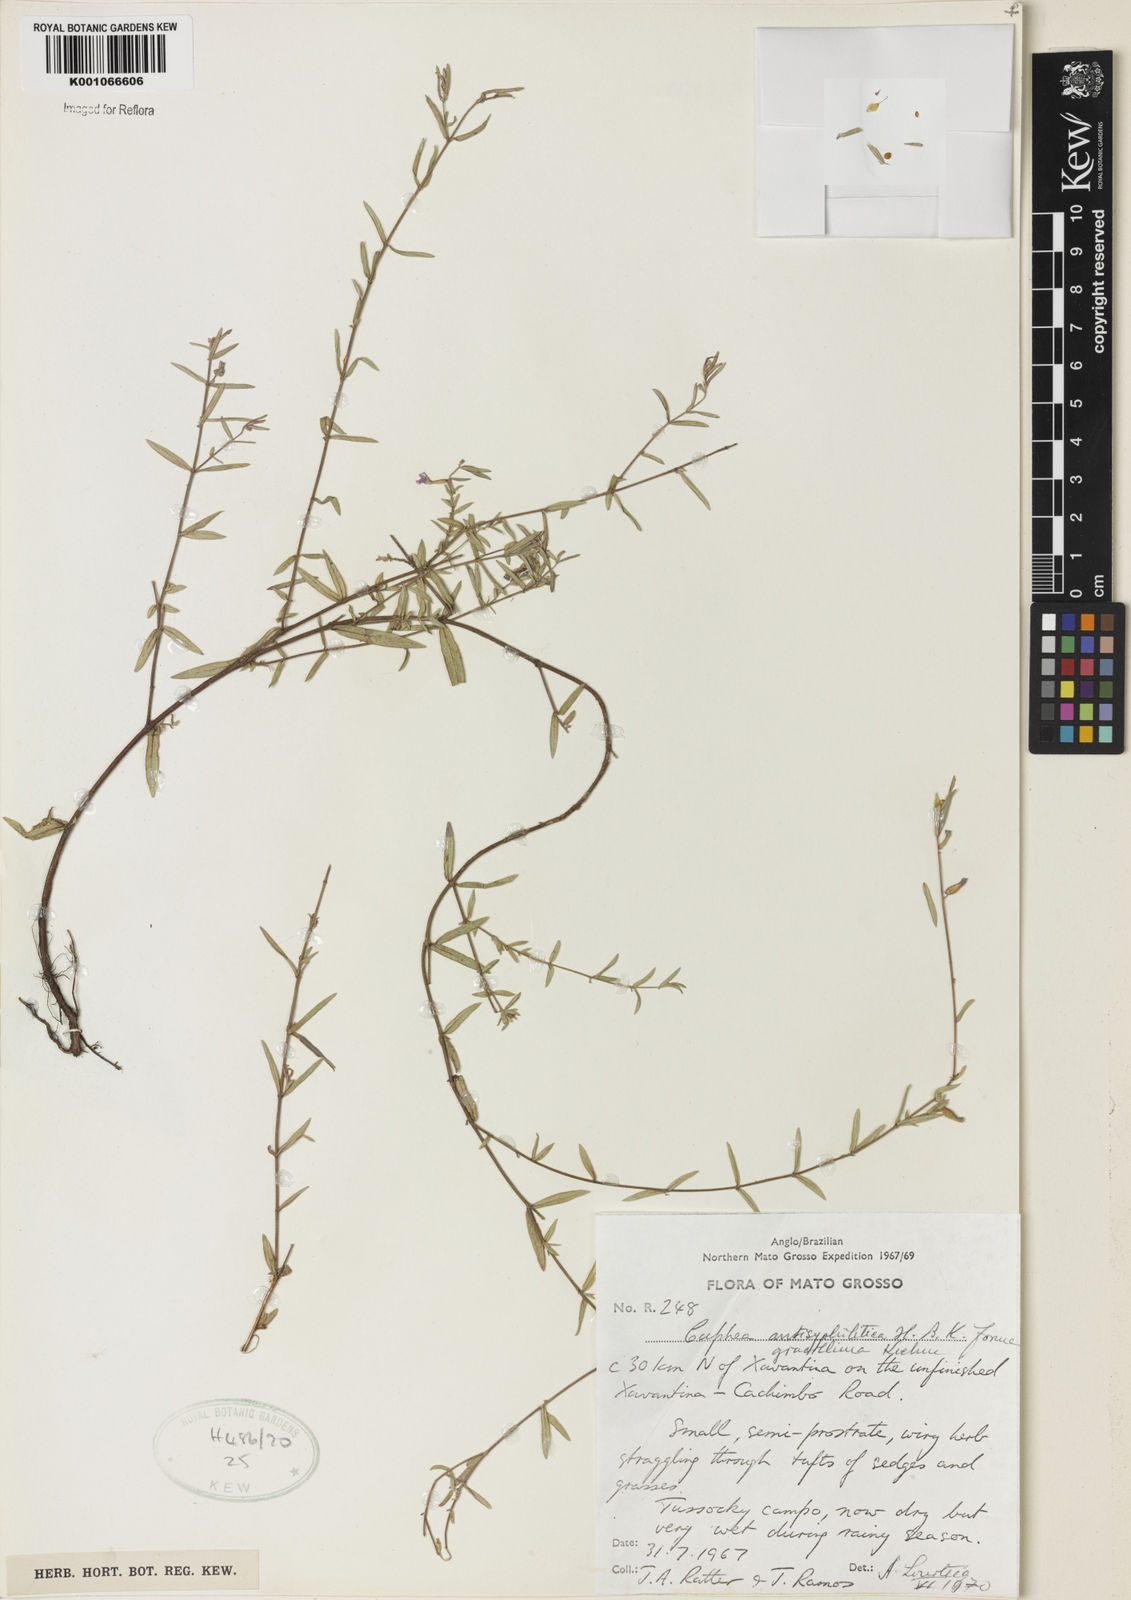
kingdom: Plantae
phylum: Tracheophyta
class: Magnoliopsida
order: Myrtales
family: Lythraceae
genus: Cuphea
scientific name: Cuphea antisyphilitica
